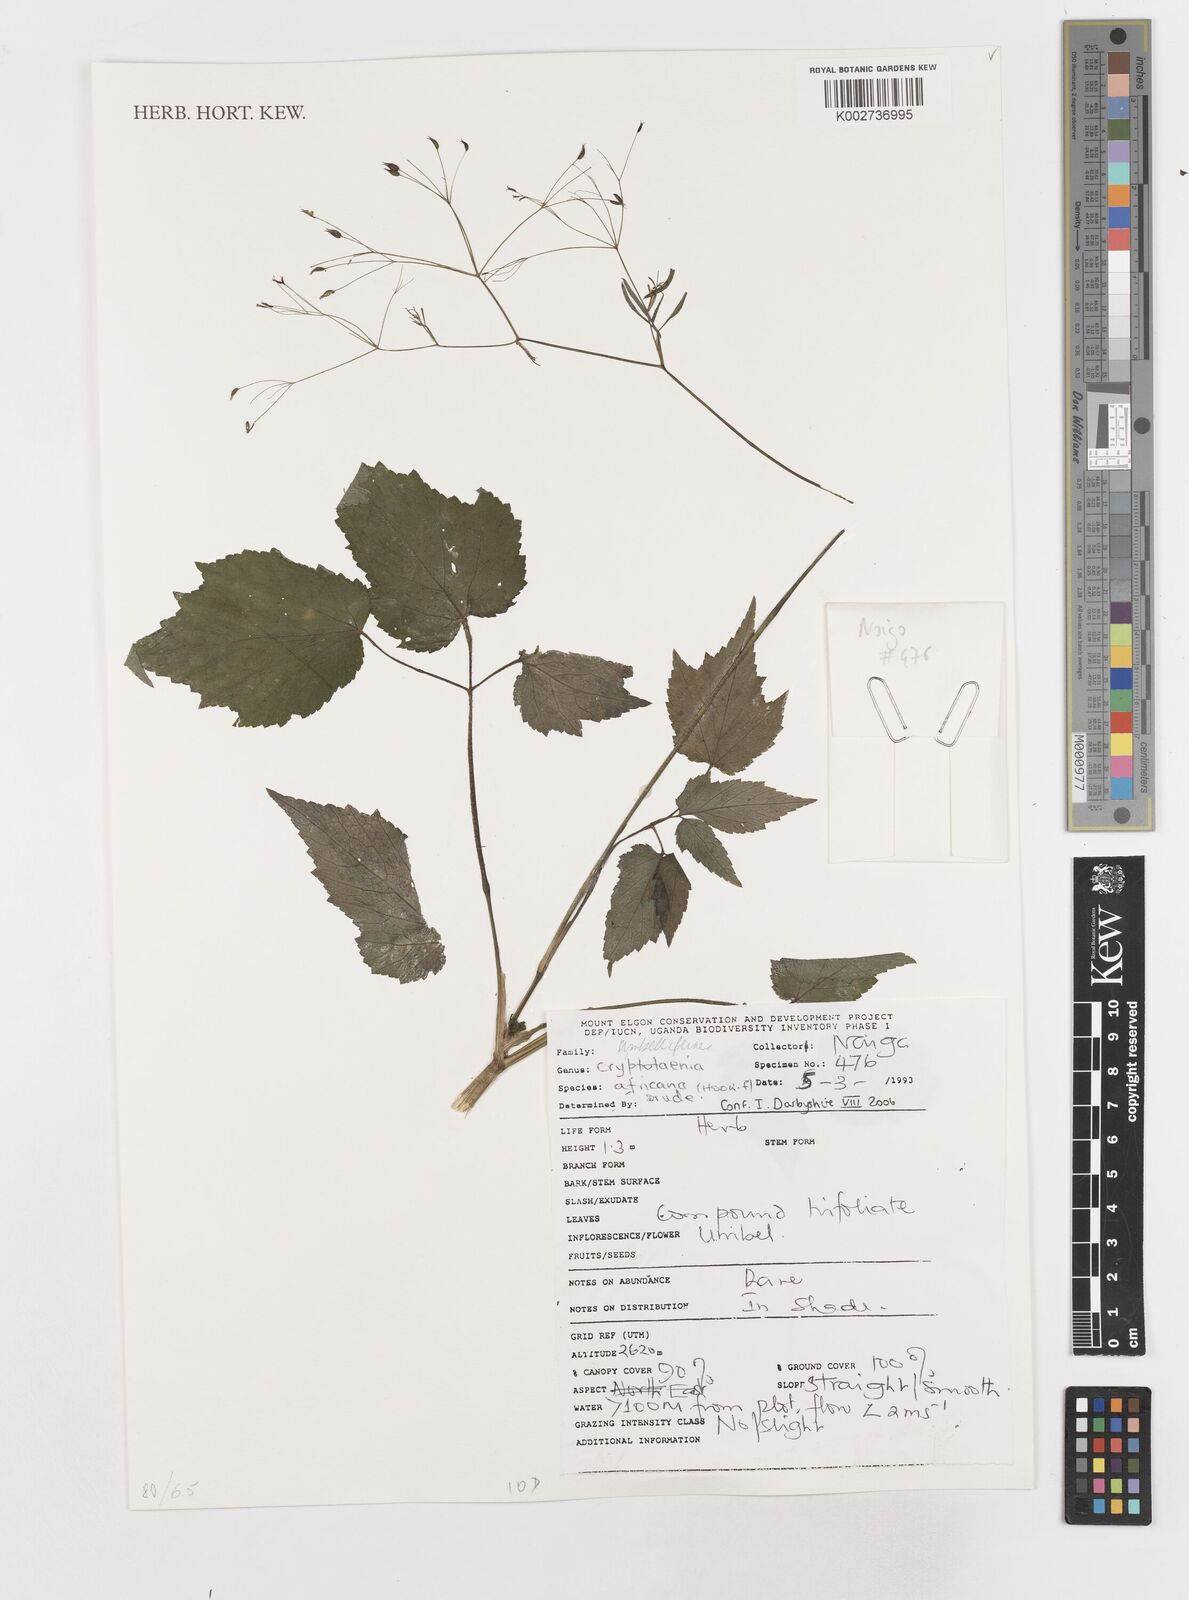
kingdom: Plantae
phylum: Tracheophyta
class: Magnoliopsida
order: Apiales
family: Apiaceae
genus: Cryptotaenia
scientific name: Cryptotaenia africana
